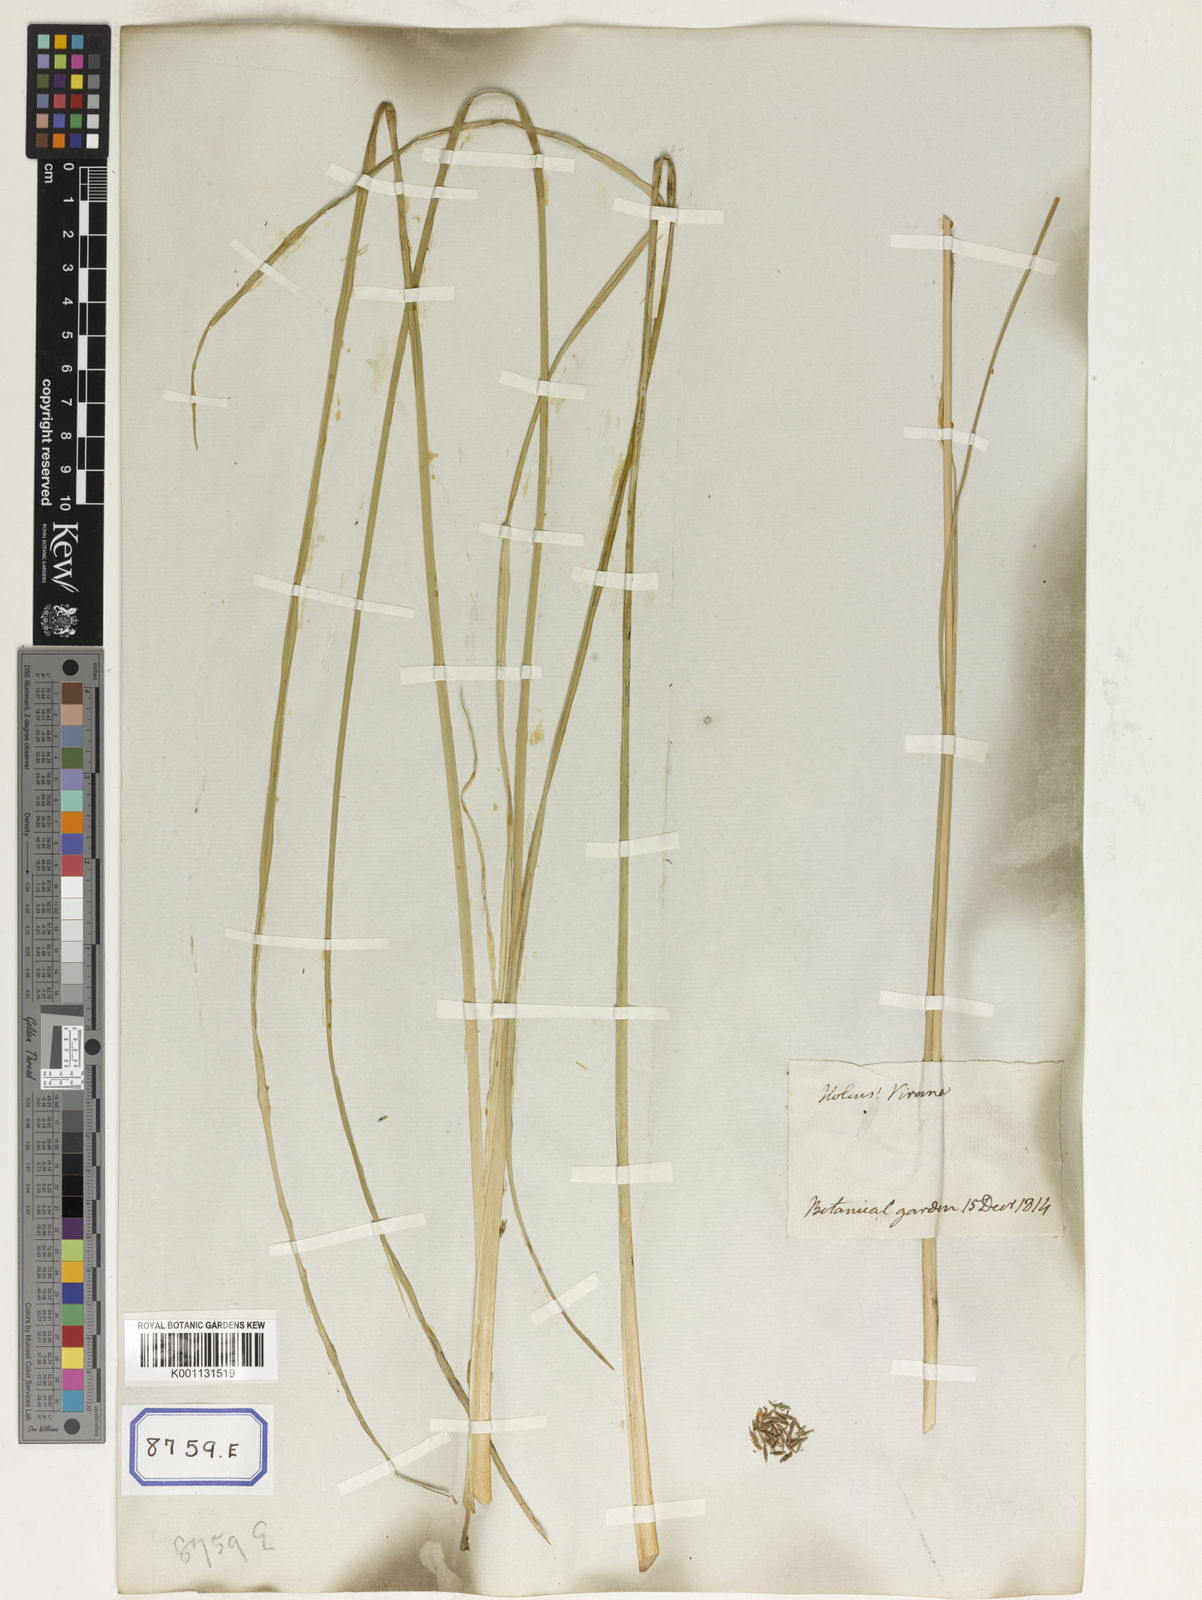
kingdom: Plantae
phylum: Tracheophyta
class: Liliopsida
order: Poales
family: Poaceae
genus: Chrysopogon
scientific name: Chrysopogon zizanioides
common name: False beardgrass
